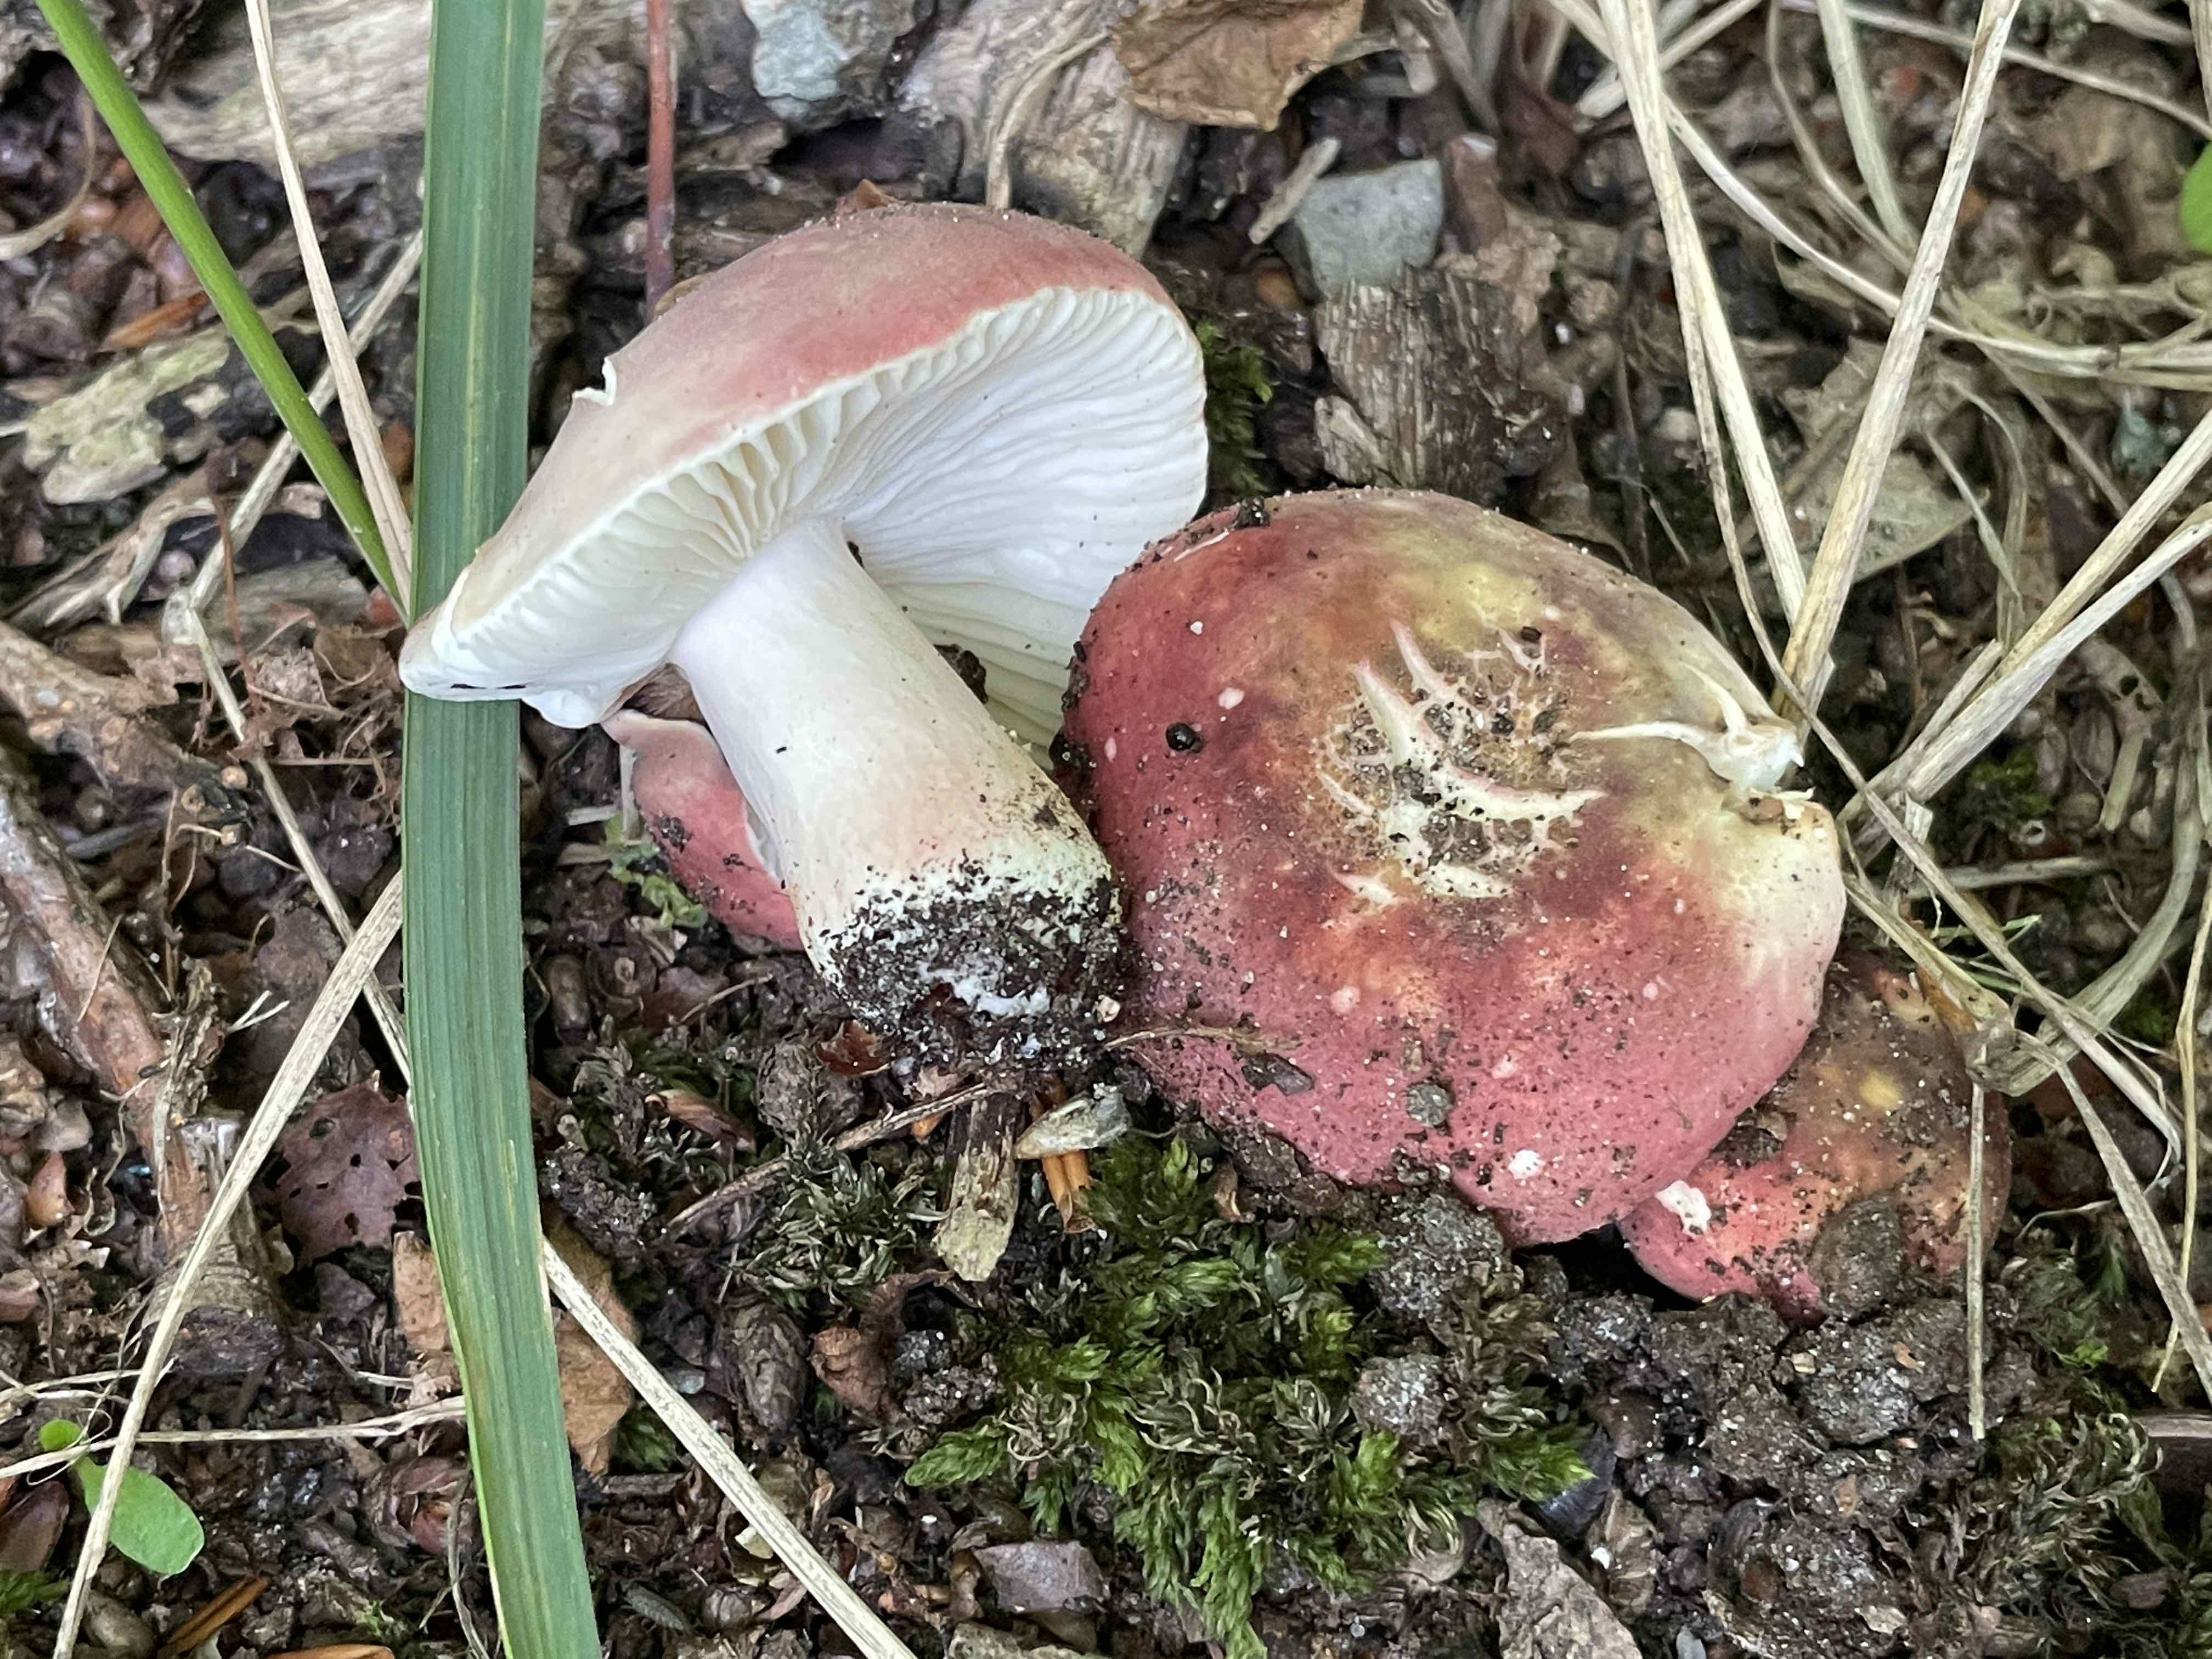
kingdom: Fungi
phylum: Basidiomycota
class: Agaricomycetes
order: Russulales
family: Russulaceae
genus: Russula
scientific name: Russula
